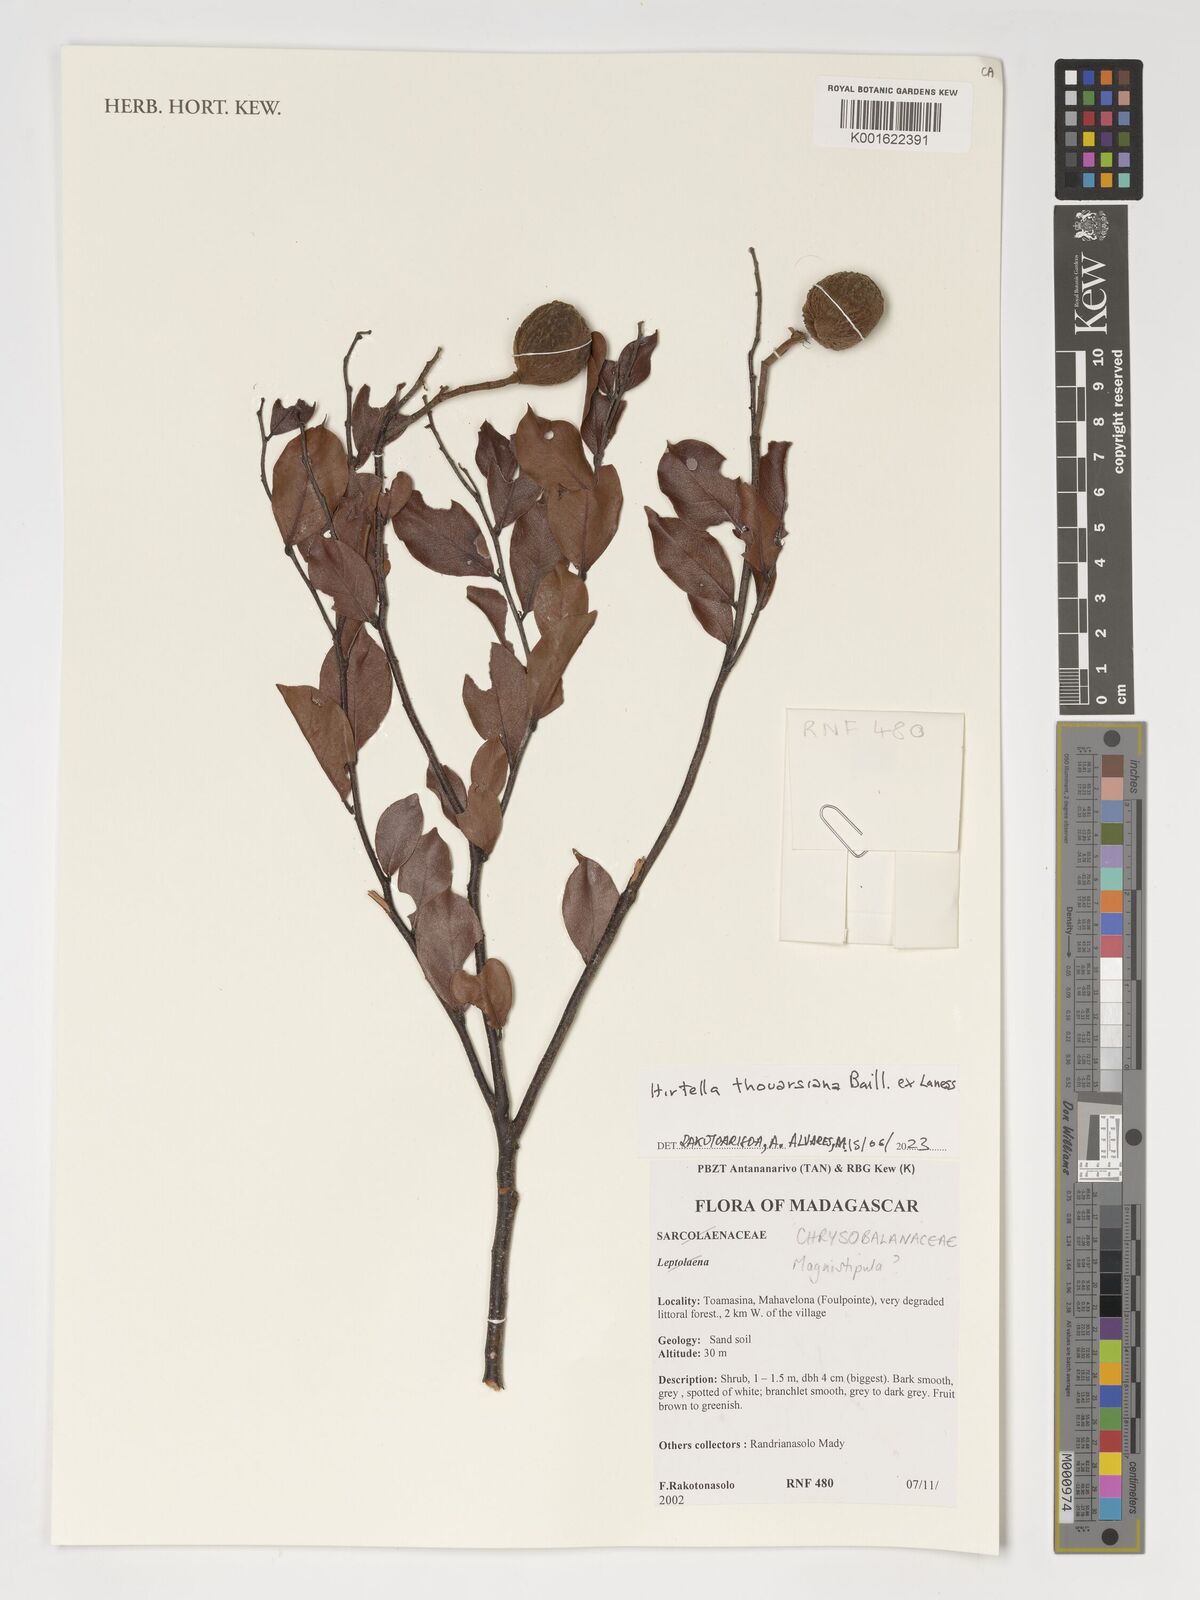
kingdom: Plantae
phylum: Tracheophyta
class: Magnoliopsida
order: Malpighiales
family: Chrysobalanaceae
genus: Hirtella
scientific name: Hirtella thouarsiana
